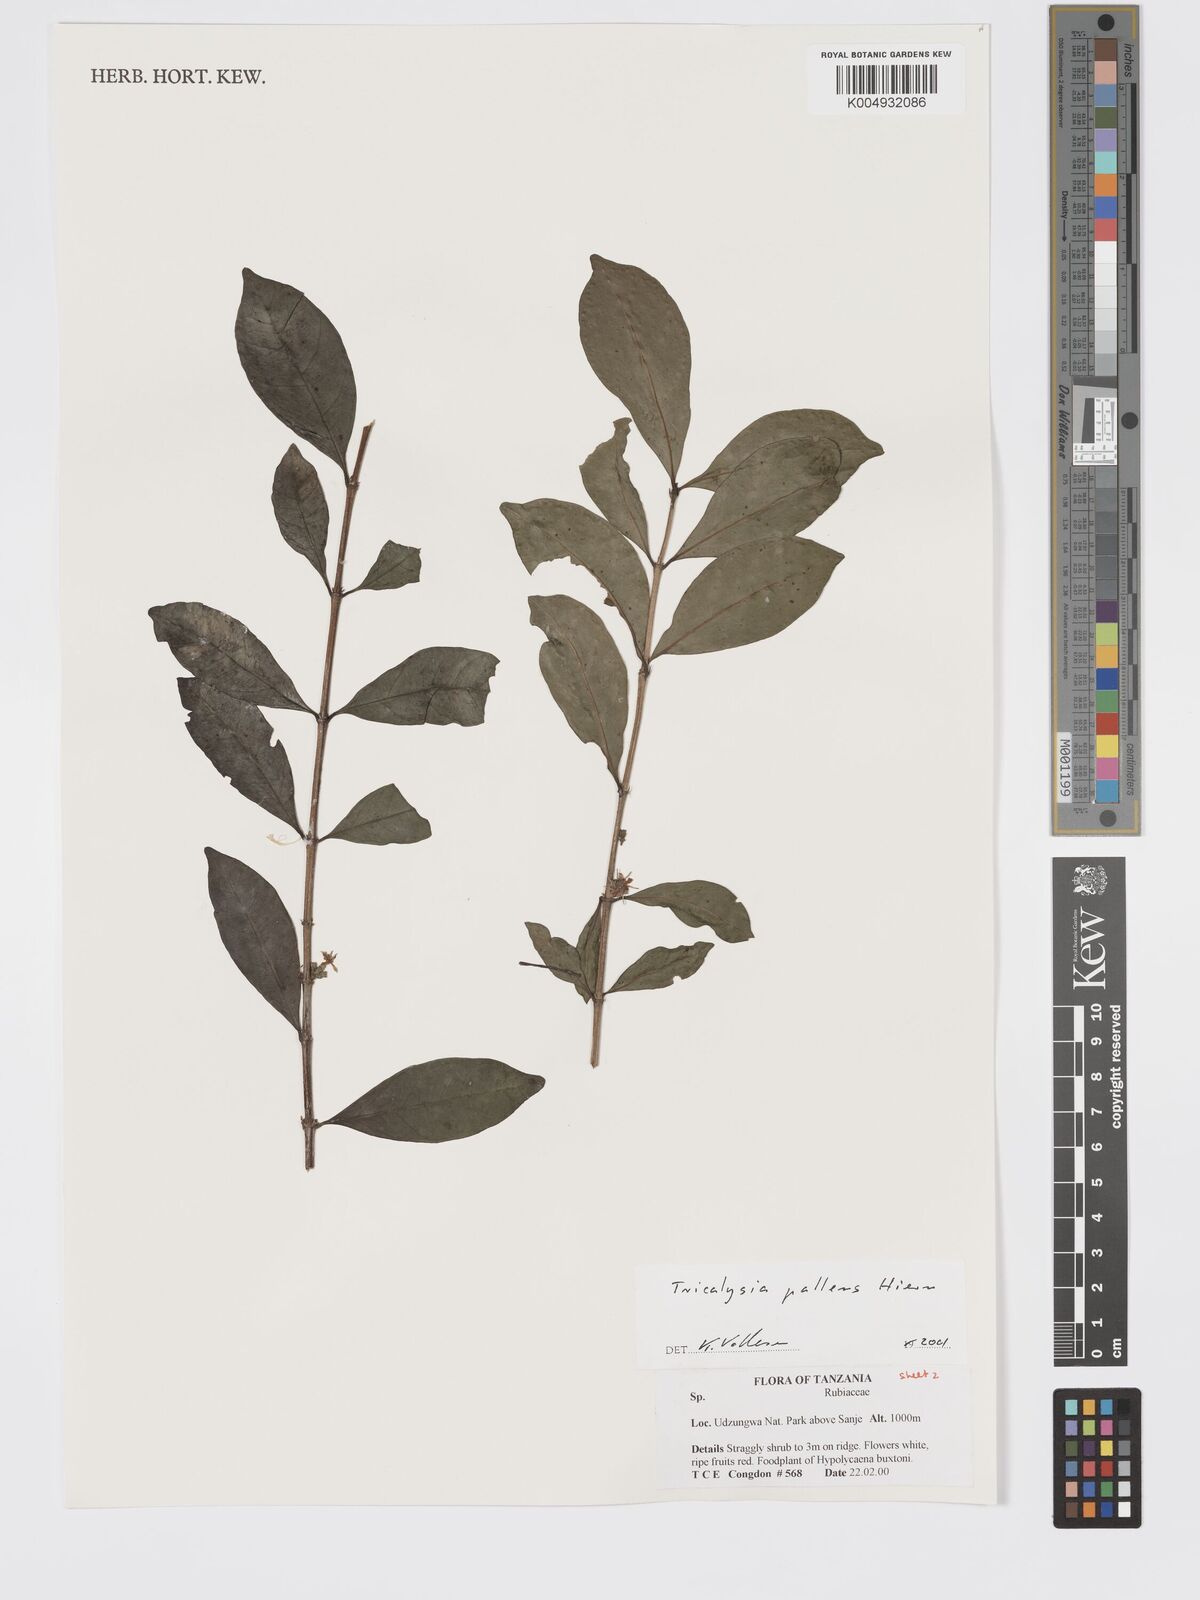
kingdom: Plantae
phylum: Tracheophyta
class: Magnoliopsida
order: Gentianales
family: Rubiaceae
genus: Tricalysia
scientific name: Tricalysia pallens
